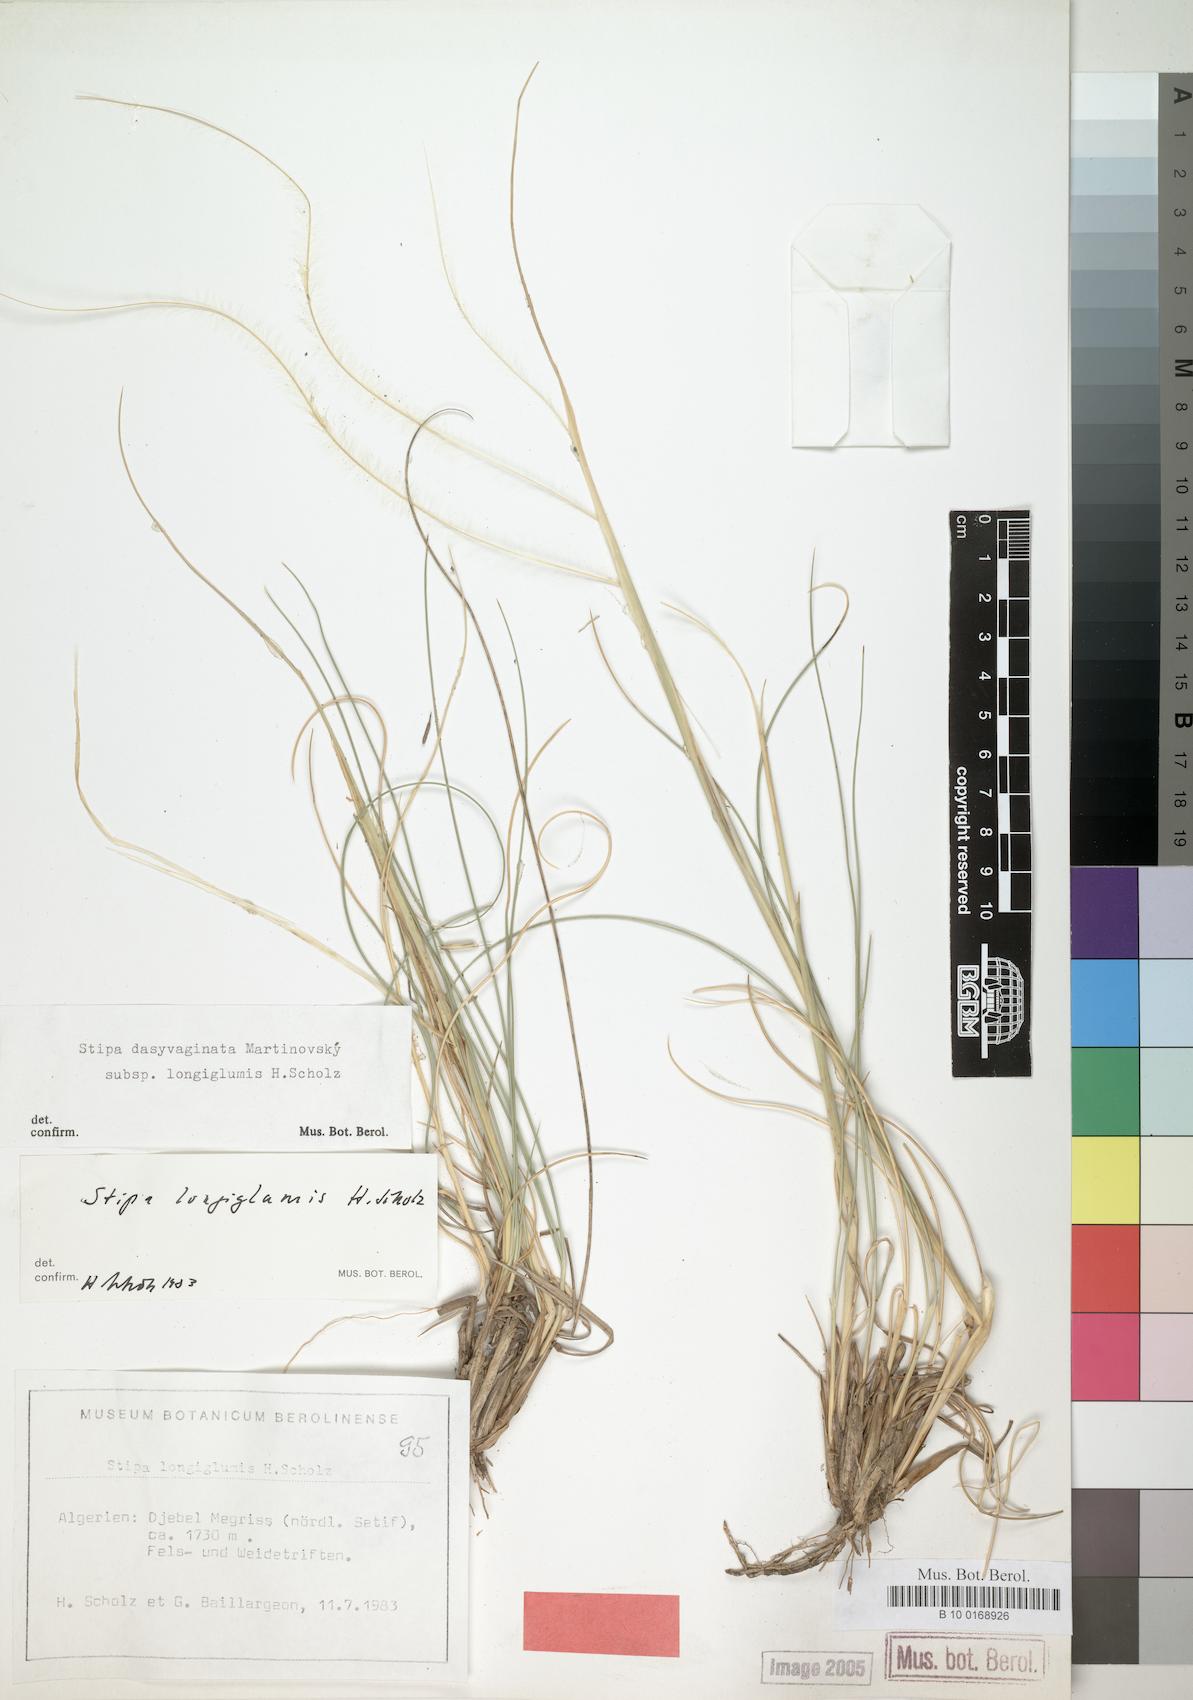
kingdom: Plantae
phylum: Tracheophyta
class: Liliopsida
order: Poales
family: Poaceae
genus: Stipa
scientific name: Stipa apertifolia
